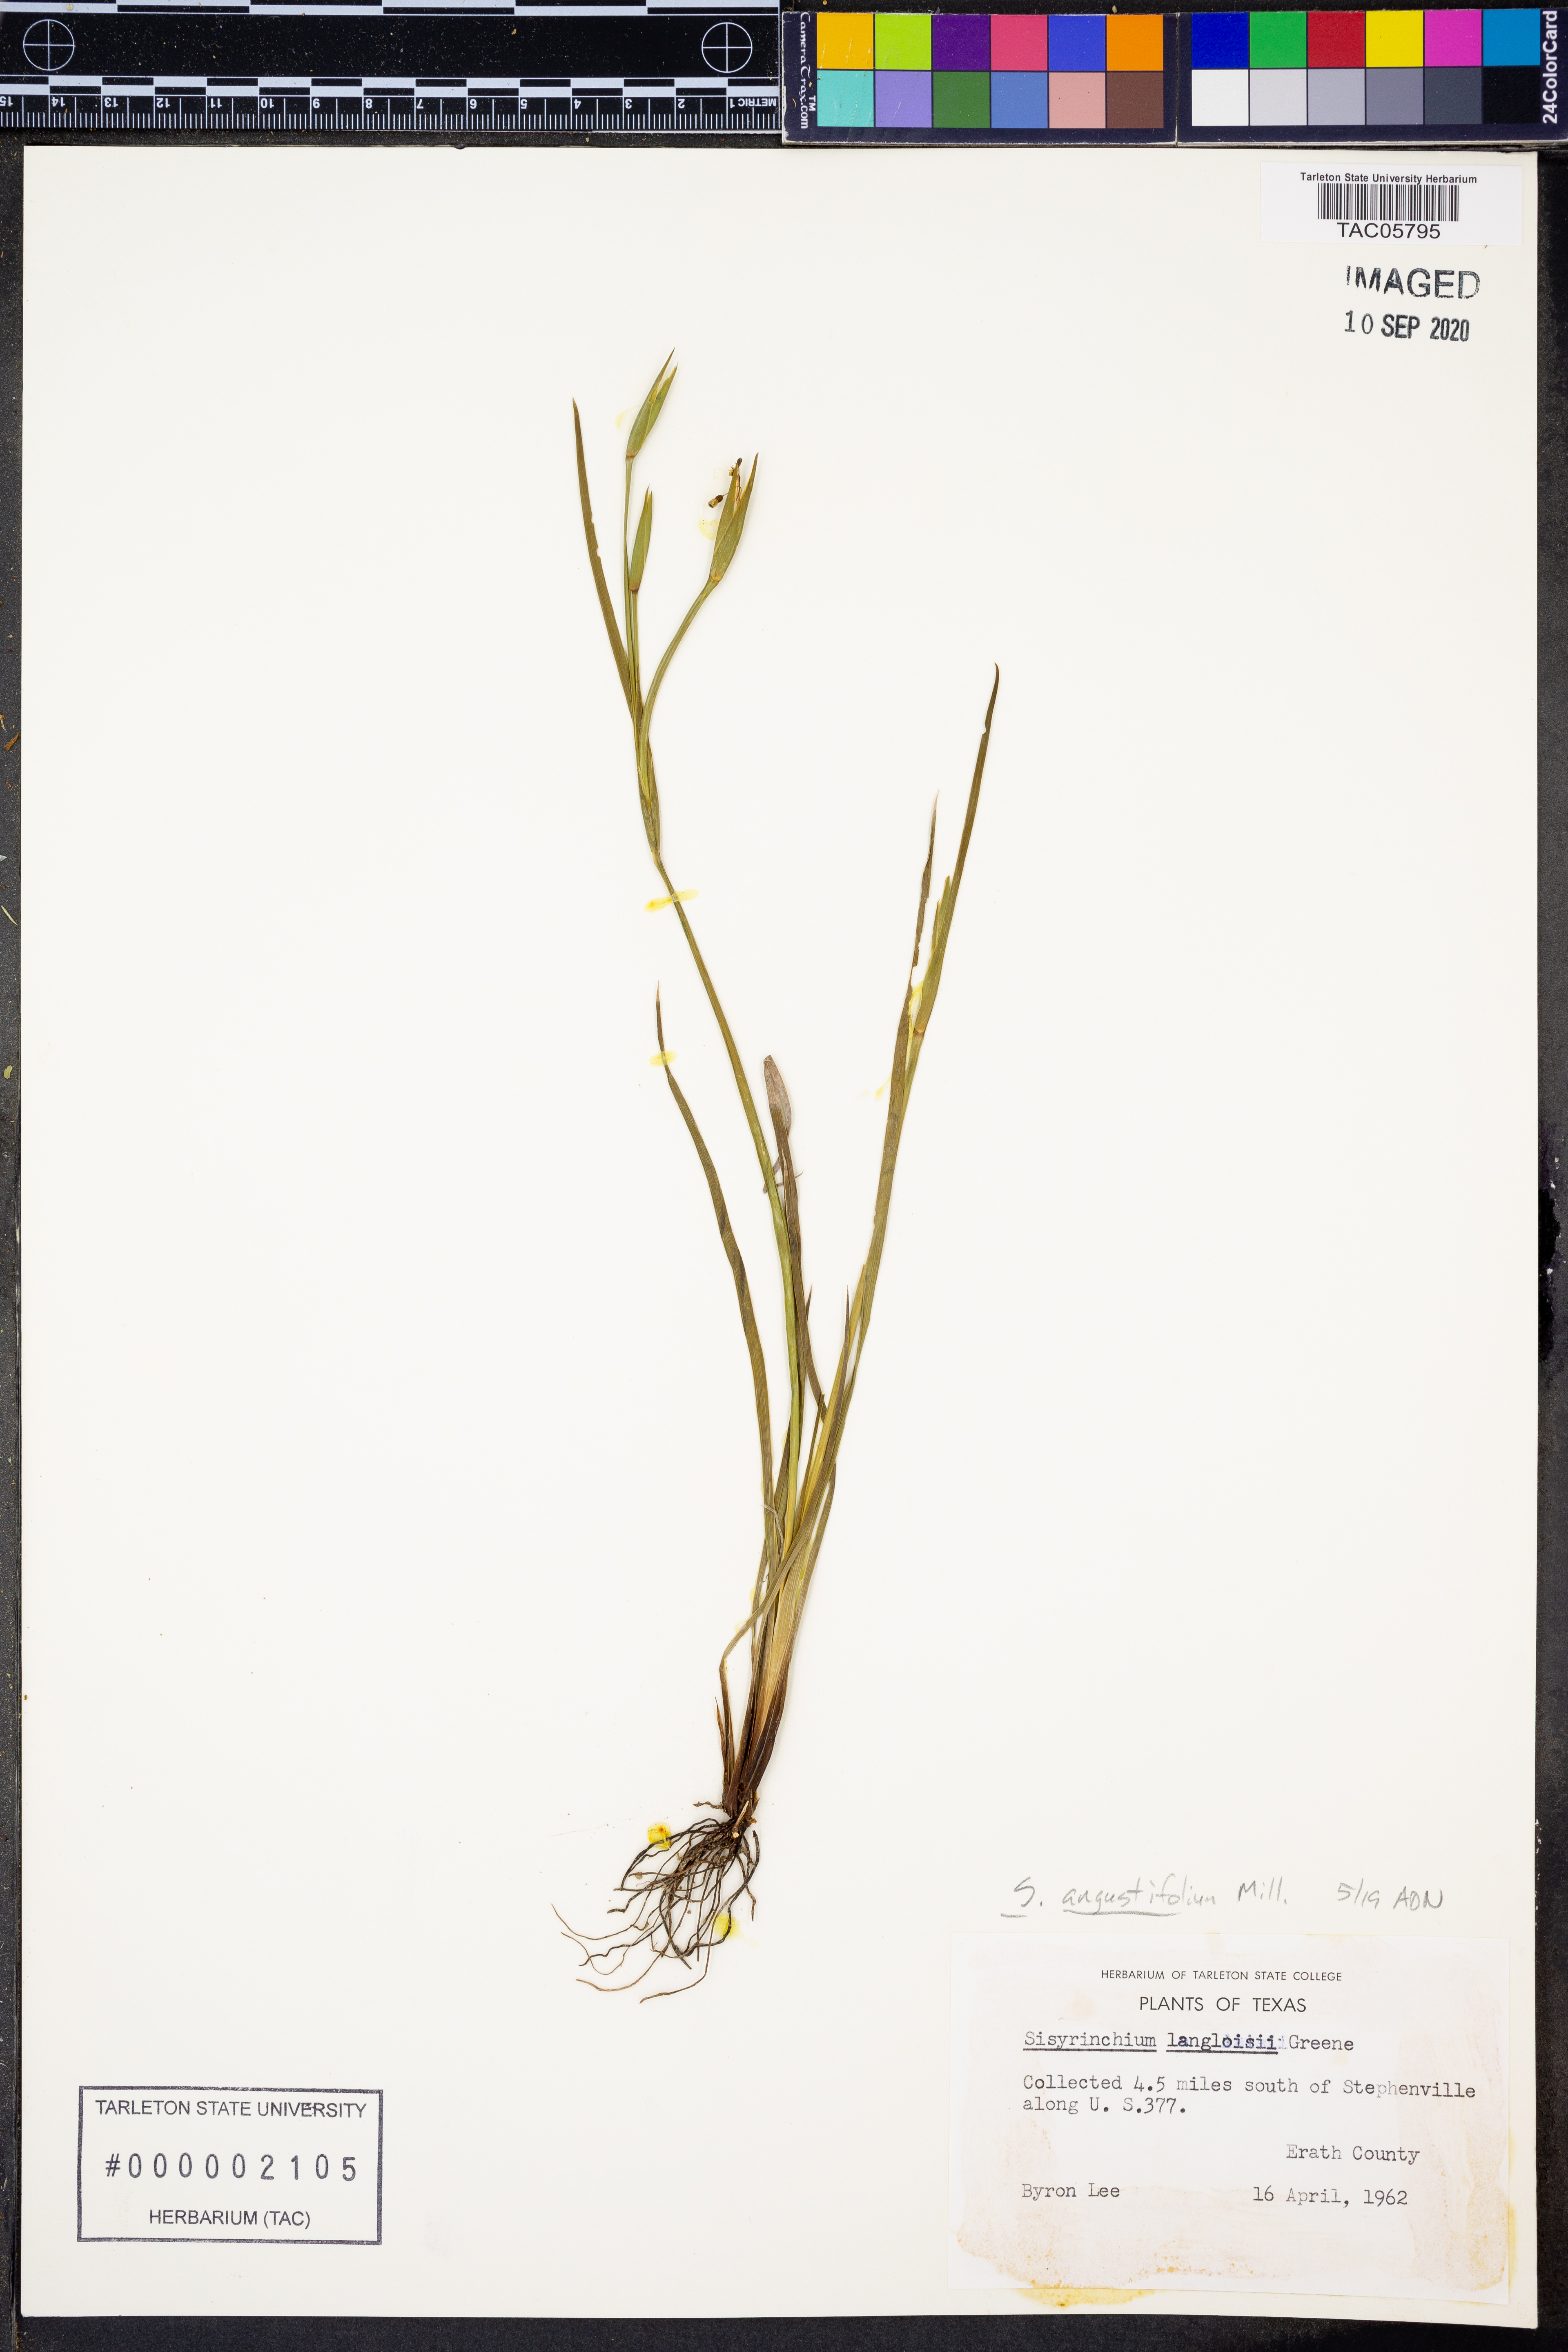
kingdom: Plantae
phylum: Tracheophyta
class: Liliopsida
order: Asparagales
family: Iridaceae
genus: Sisyrinchium
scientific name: Sisyrinchium angustifolium
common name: Narrow-leaf blue-eyed-grass
